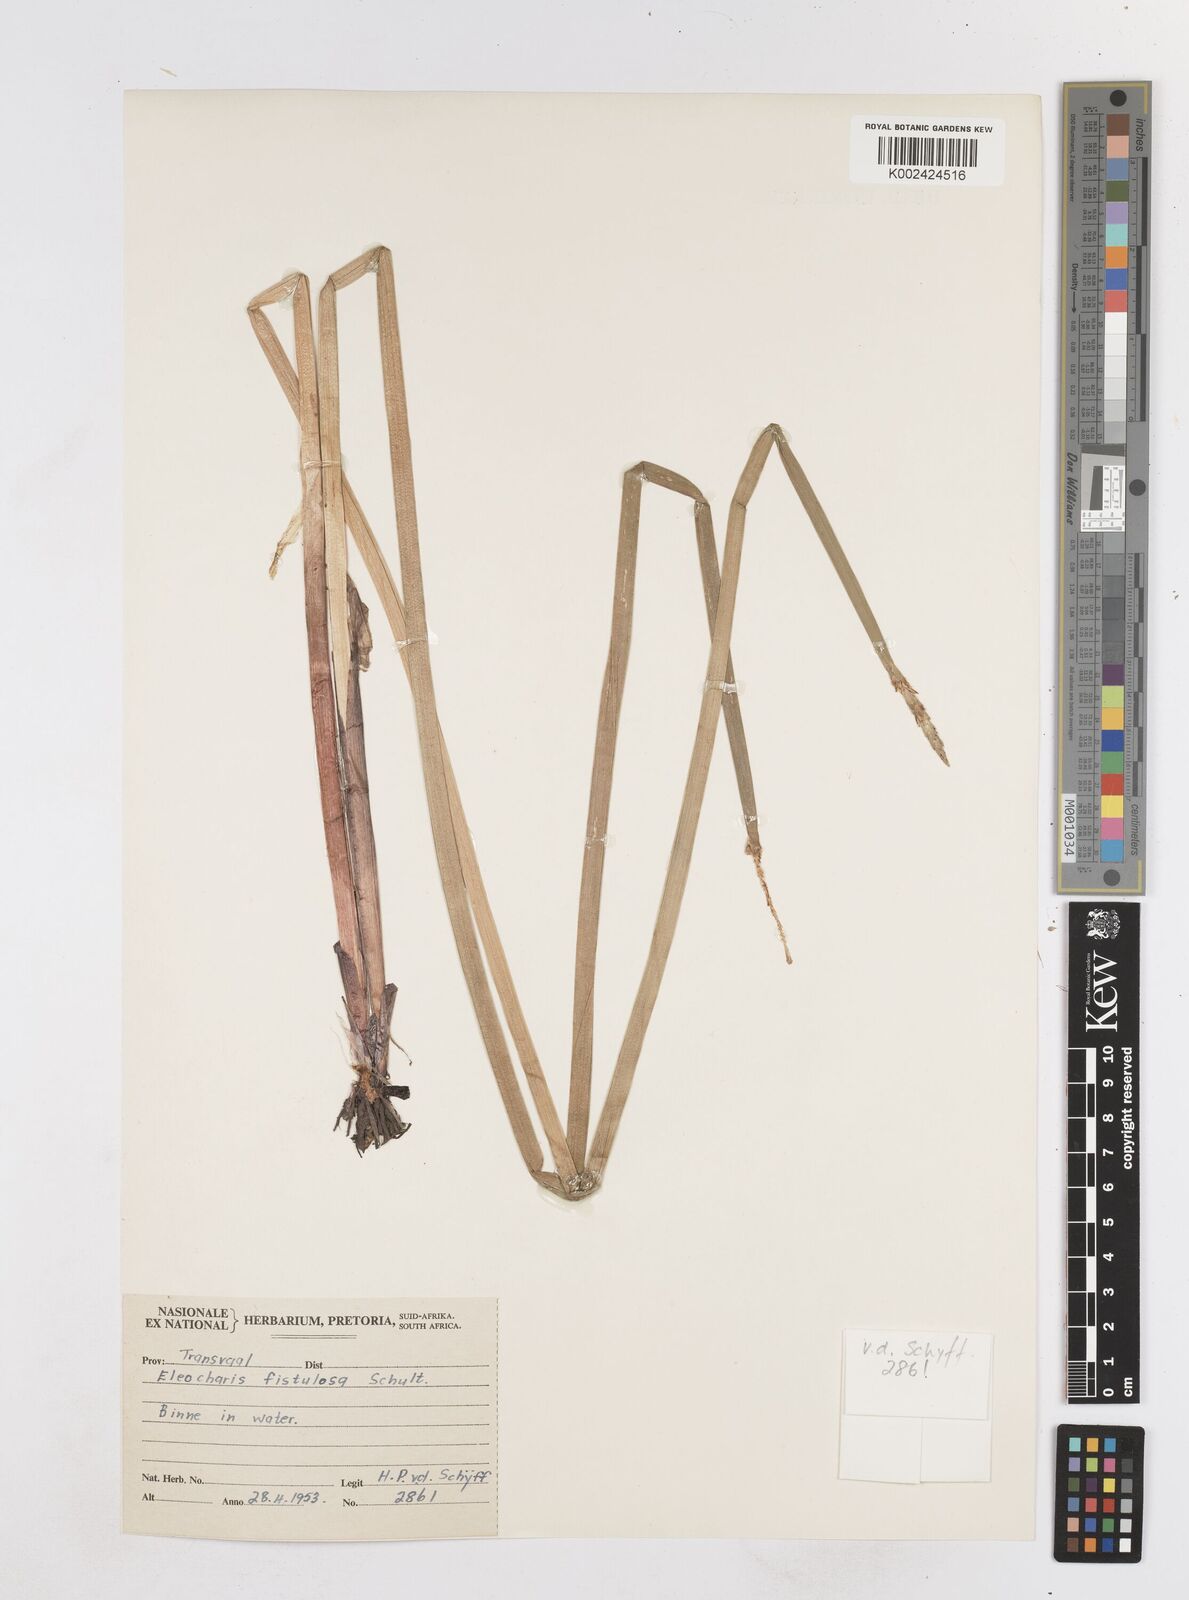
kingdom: Plantae
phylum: Tracheophyta
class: Liliopsida
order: Poales
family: Cyperaceae
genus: Eleocharis
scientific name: Eleocharis acutangula
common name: Acute spikerush
